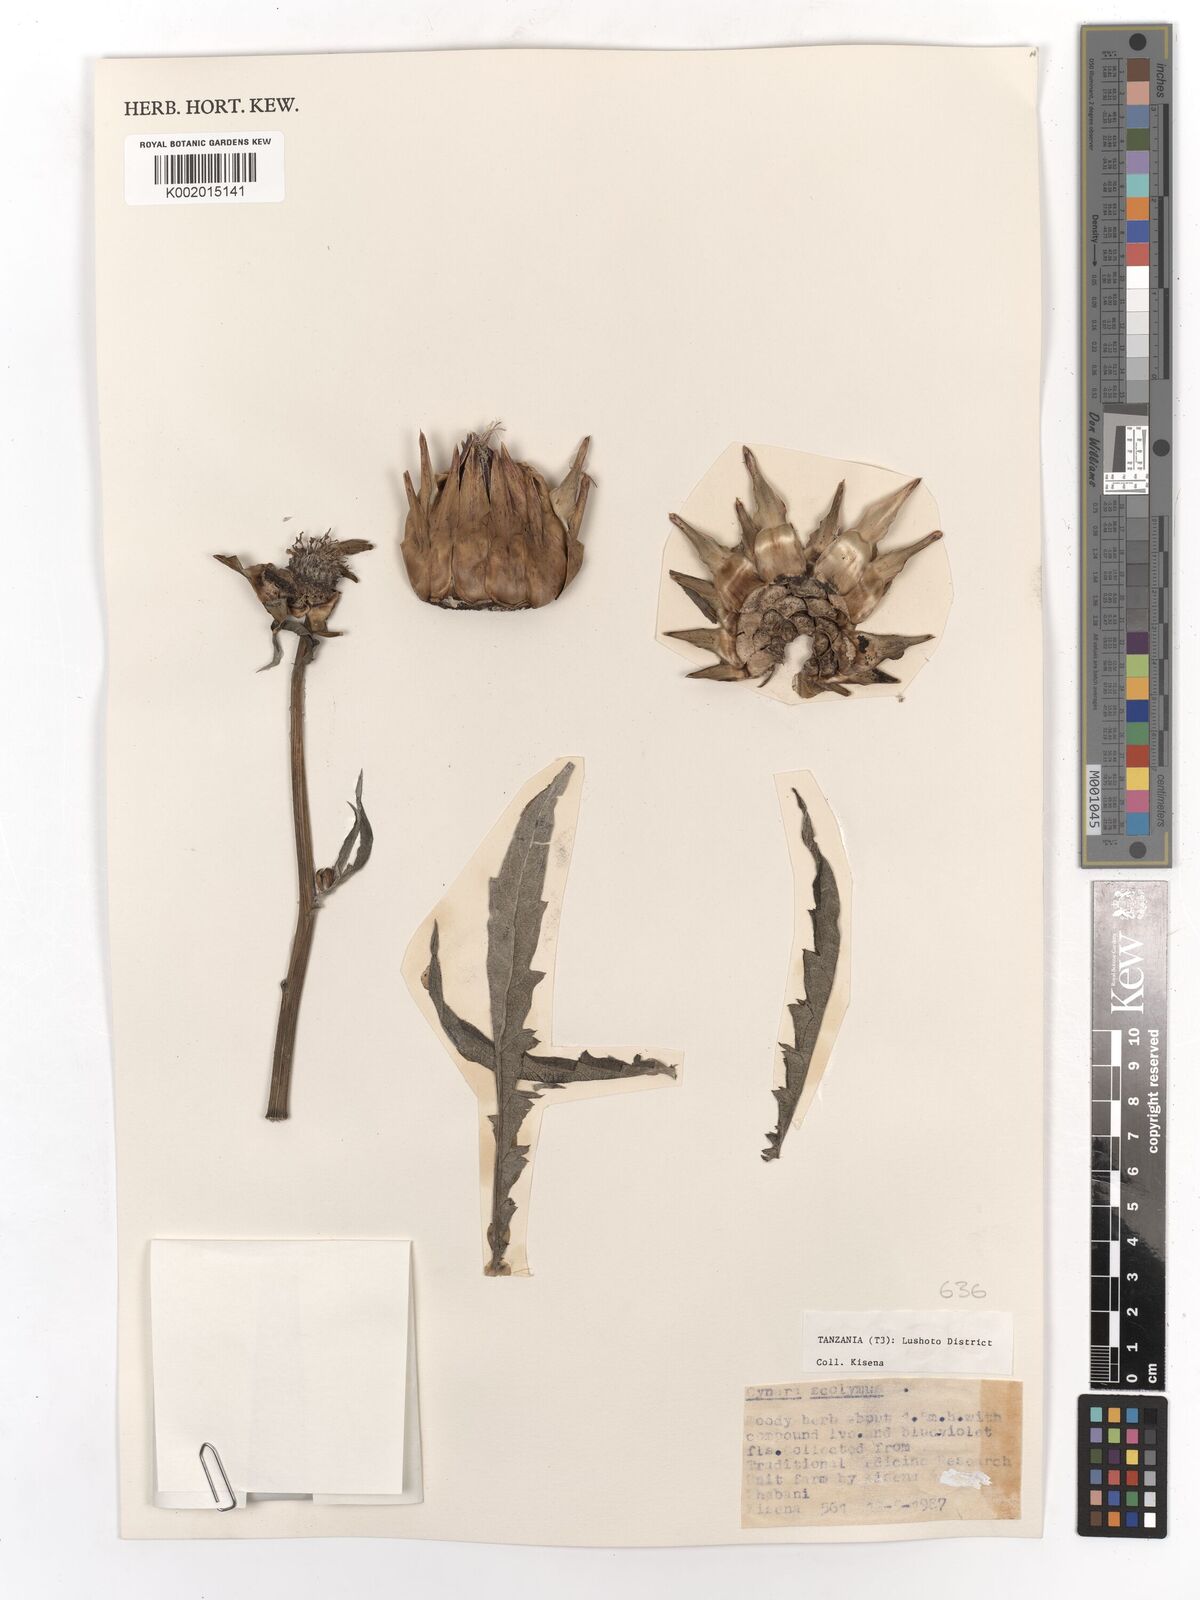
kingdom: Plantae
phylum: Tracheophyta
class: Magnoliopsida
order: Asterales
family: Asteraceae
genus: Cynara
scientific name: Cynara cardunculus
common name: Globe artichoke
